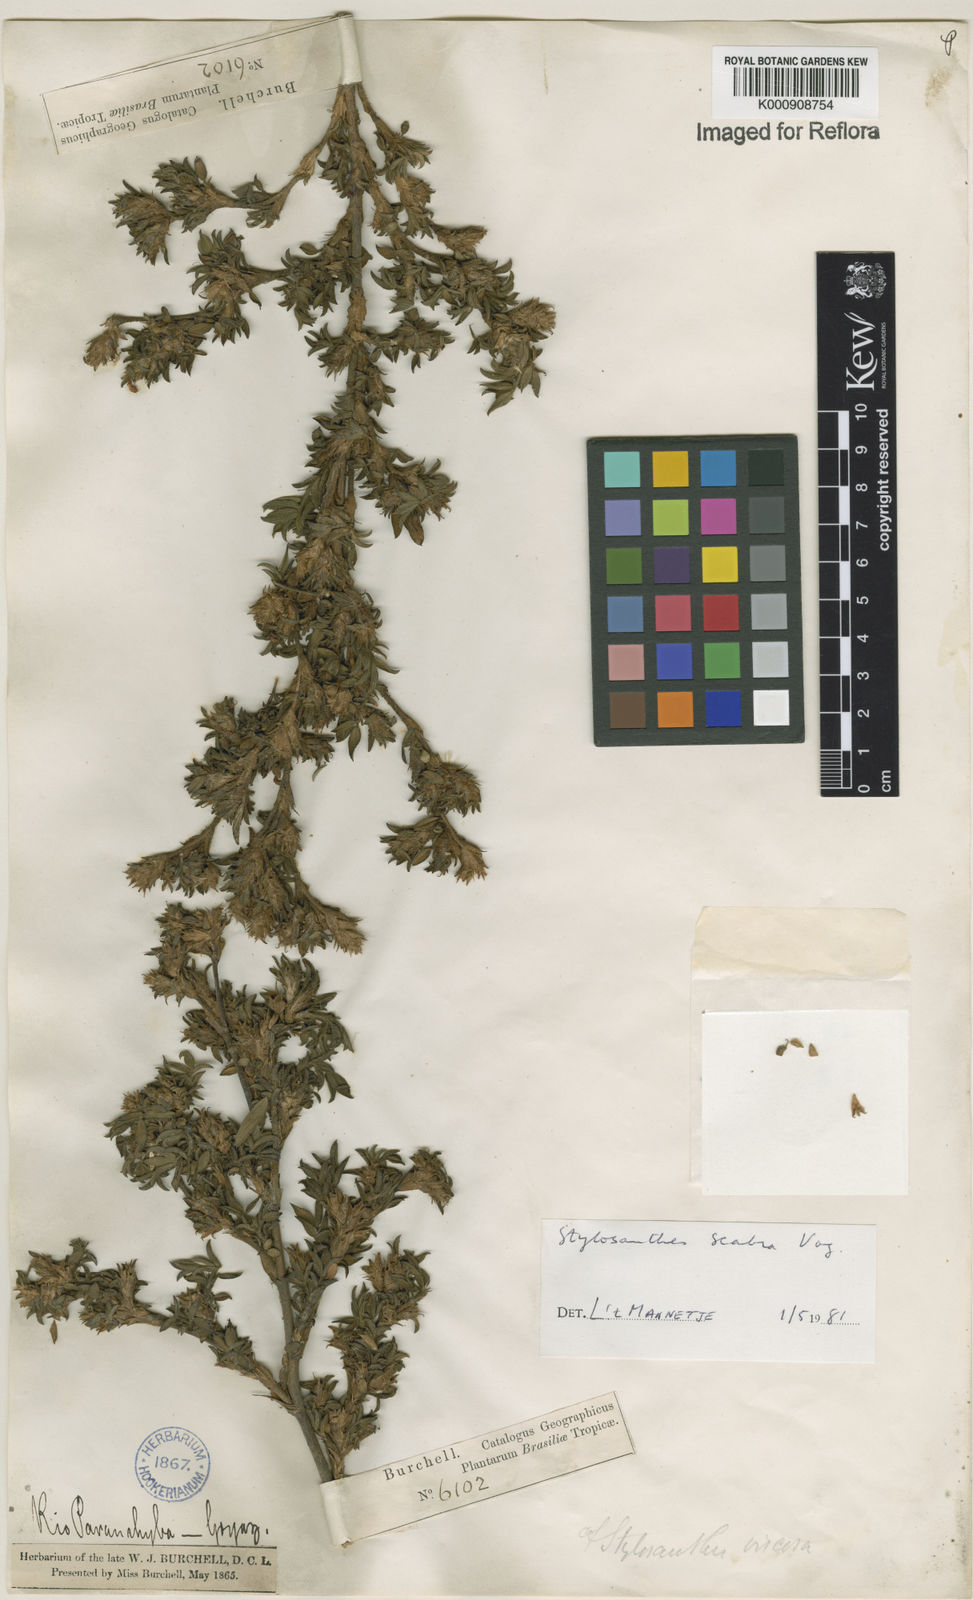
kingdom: Plantae
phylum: Tracheophyta
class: Magnoliopsida
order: Fabales
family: Fabaceae
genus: Stylosanthes
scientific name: Stylosanthes scabra
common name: Pencilflower
